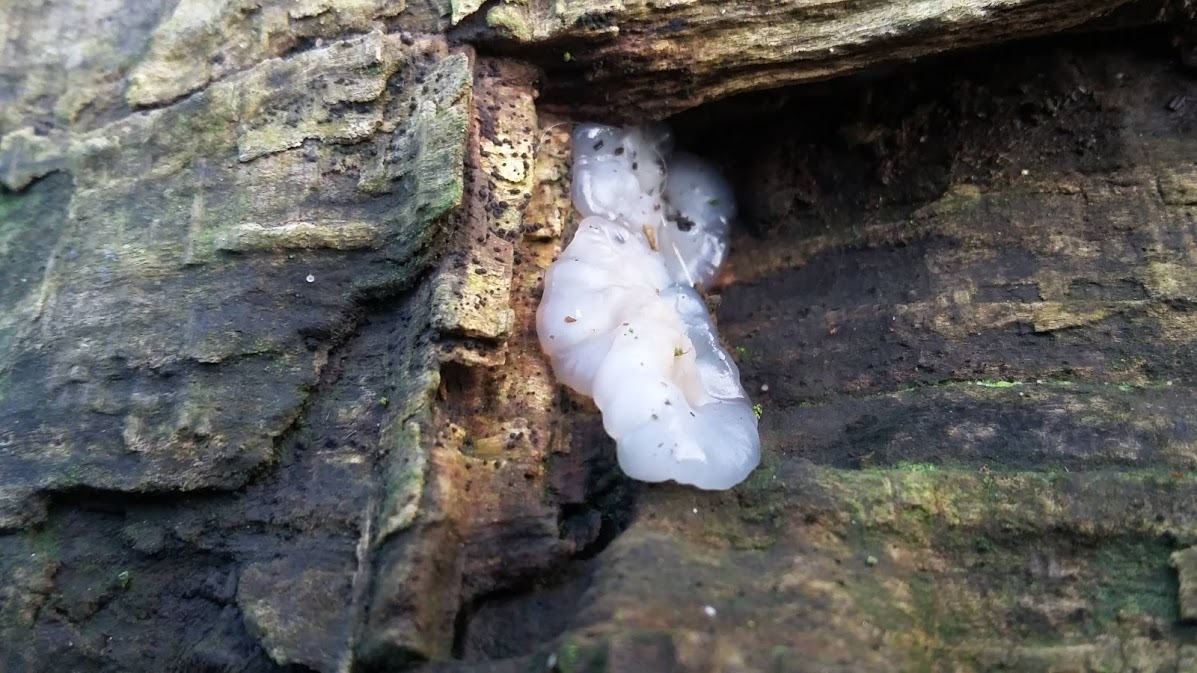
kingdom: Fungi
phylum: Basidiomycota
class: Agaricomycetes
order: Auriculariales
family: Hyaloriaceae
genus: Myxarium
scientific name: Myxarium nucleatum
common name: klar bævretop
